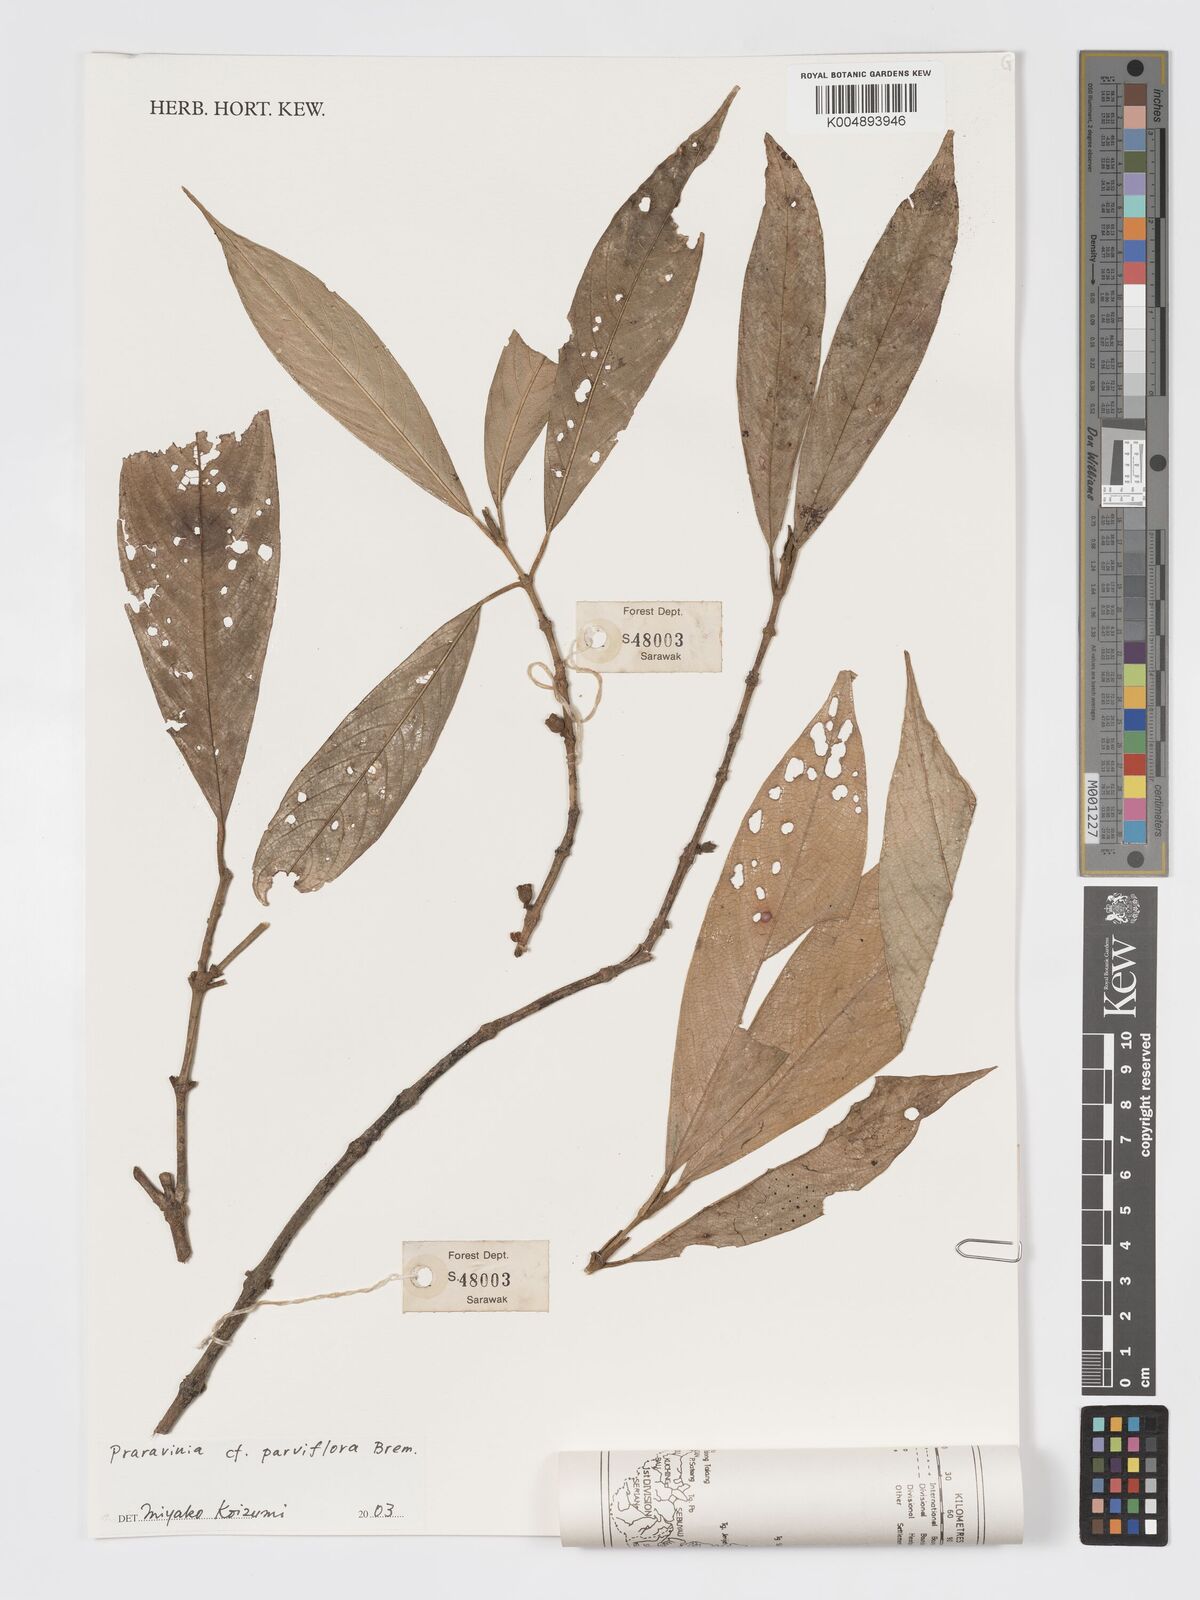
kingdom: Plantae
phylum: Tracheophyta
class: Magnoliopsida
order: Gentianales
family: Rubiaceae
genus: Praravinia
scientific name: Praravinia parviflora
